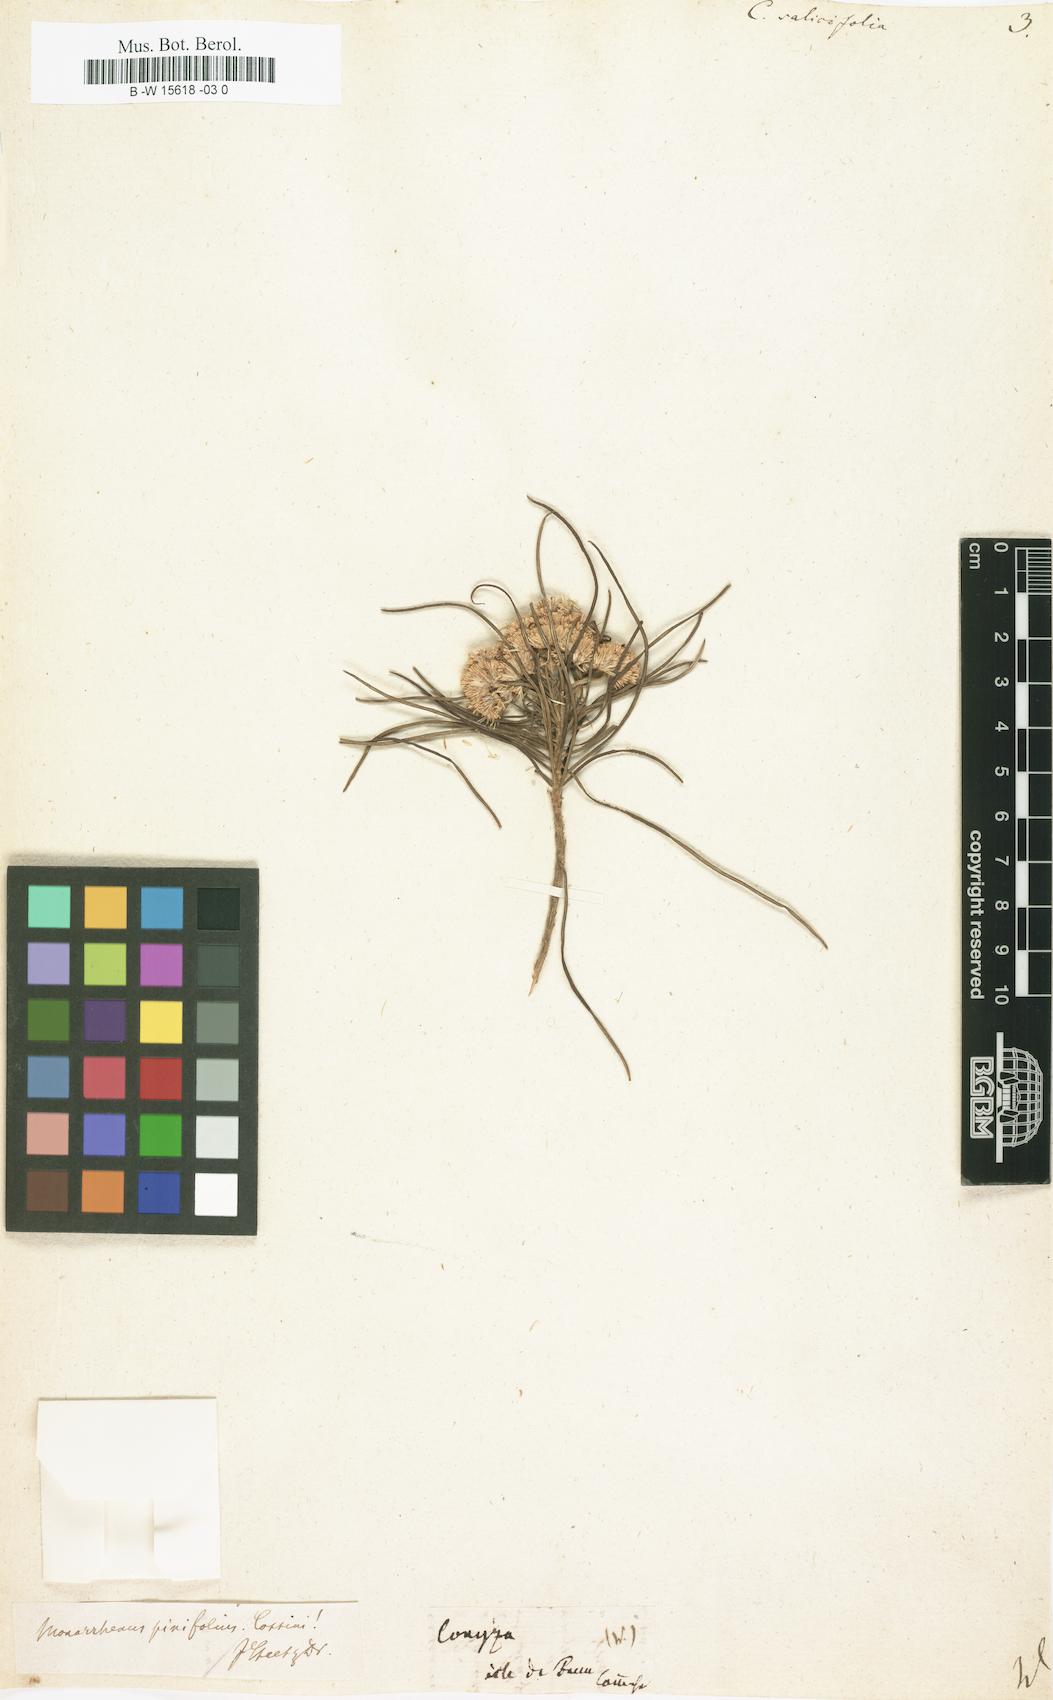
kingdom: Plantae
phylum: Tracheophyta
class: Magnoliopsida
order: Asterales
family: Asteraceae
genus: Pluchea
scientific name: Pluchea salicifolia
